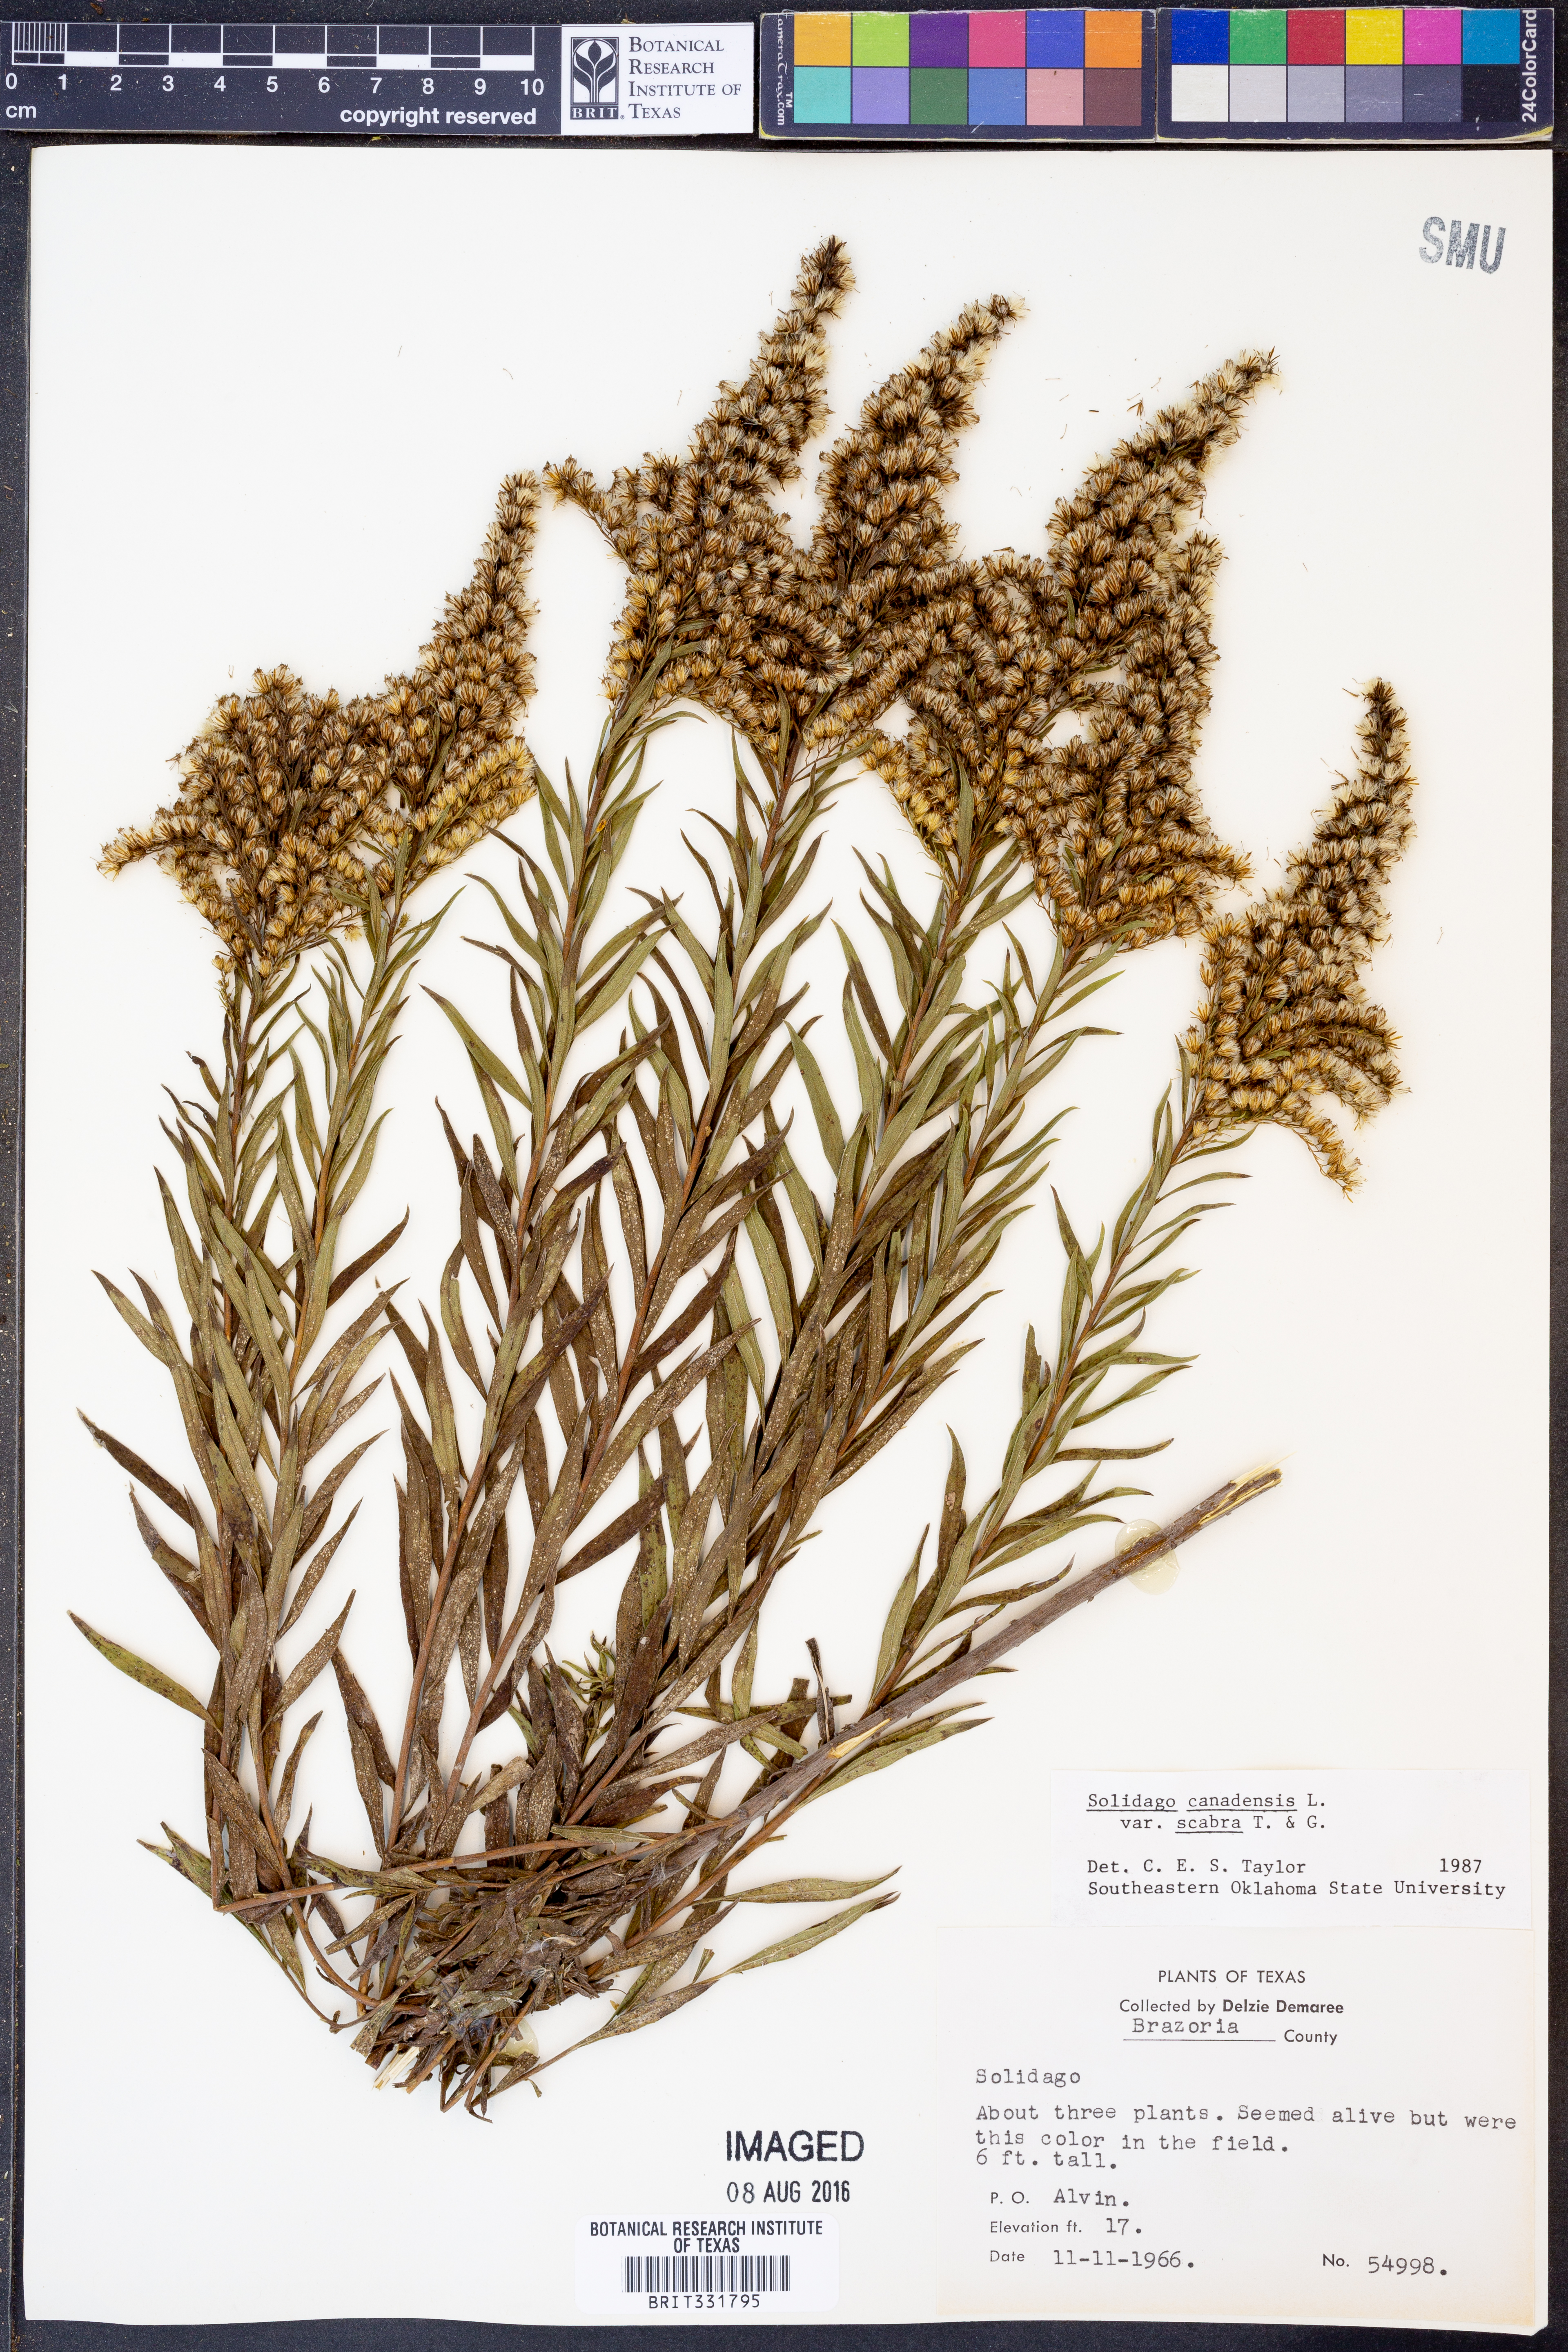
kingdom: Plantae
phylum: Tracheophyta
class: Magnoliopsida
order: Asterales
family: Asteraceae
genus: Solidago
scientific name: Solidago altissima
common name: Late goldenrod
